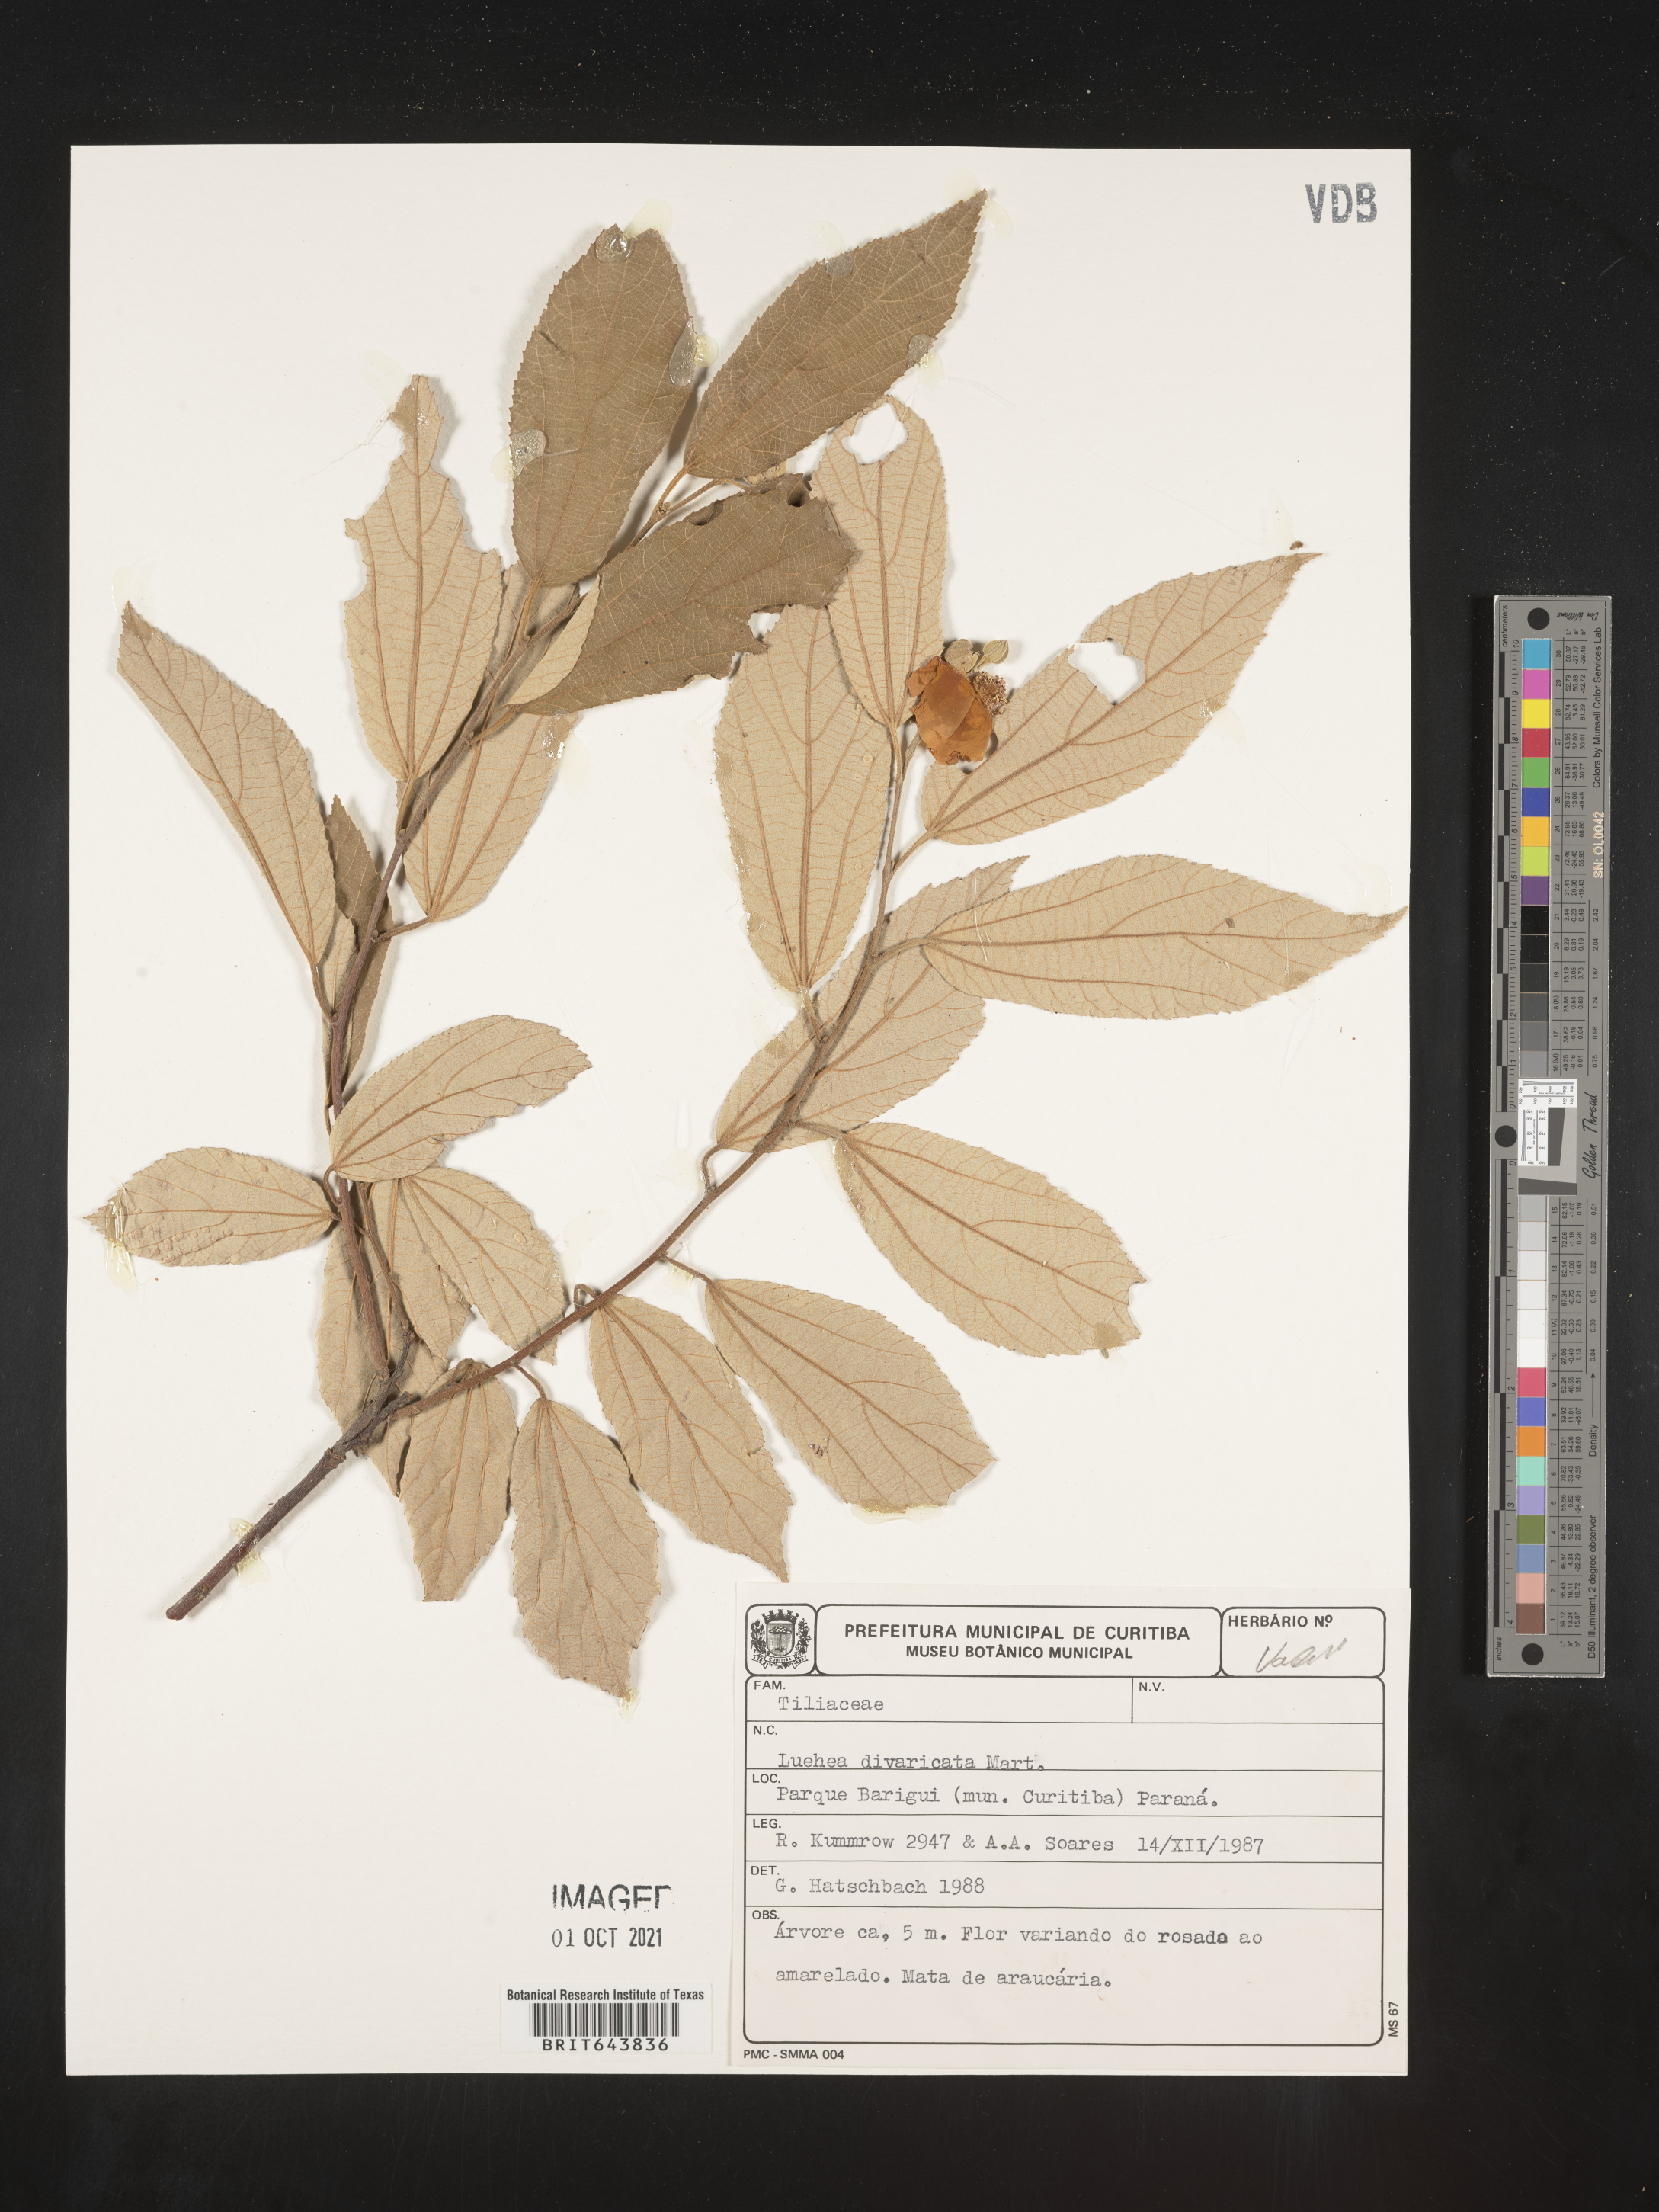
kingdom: Plantae
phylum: Tracheophyta
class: Magnoliopsida
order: Malvales
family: Malvaceae
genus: Luehea
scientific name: Luehea
